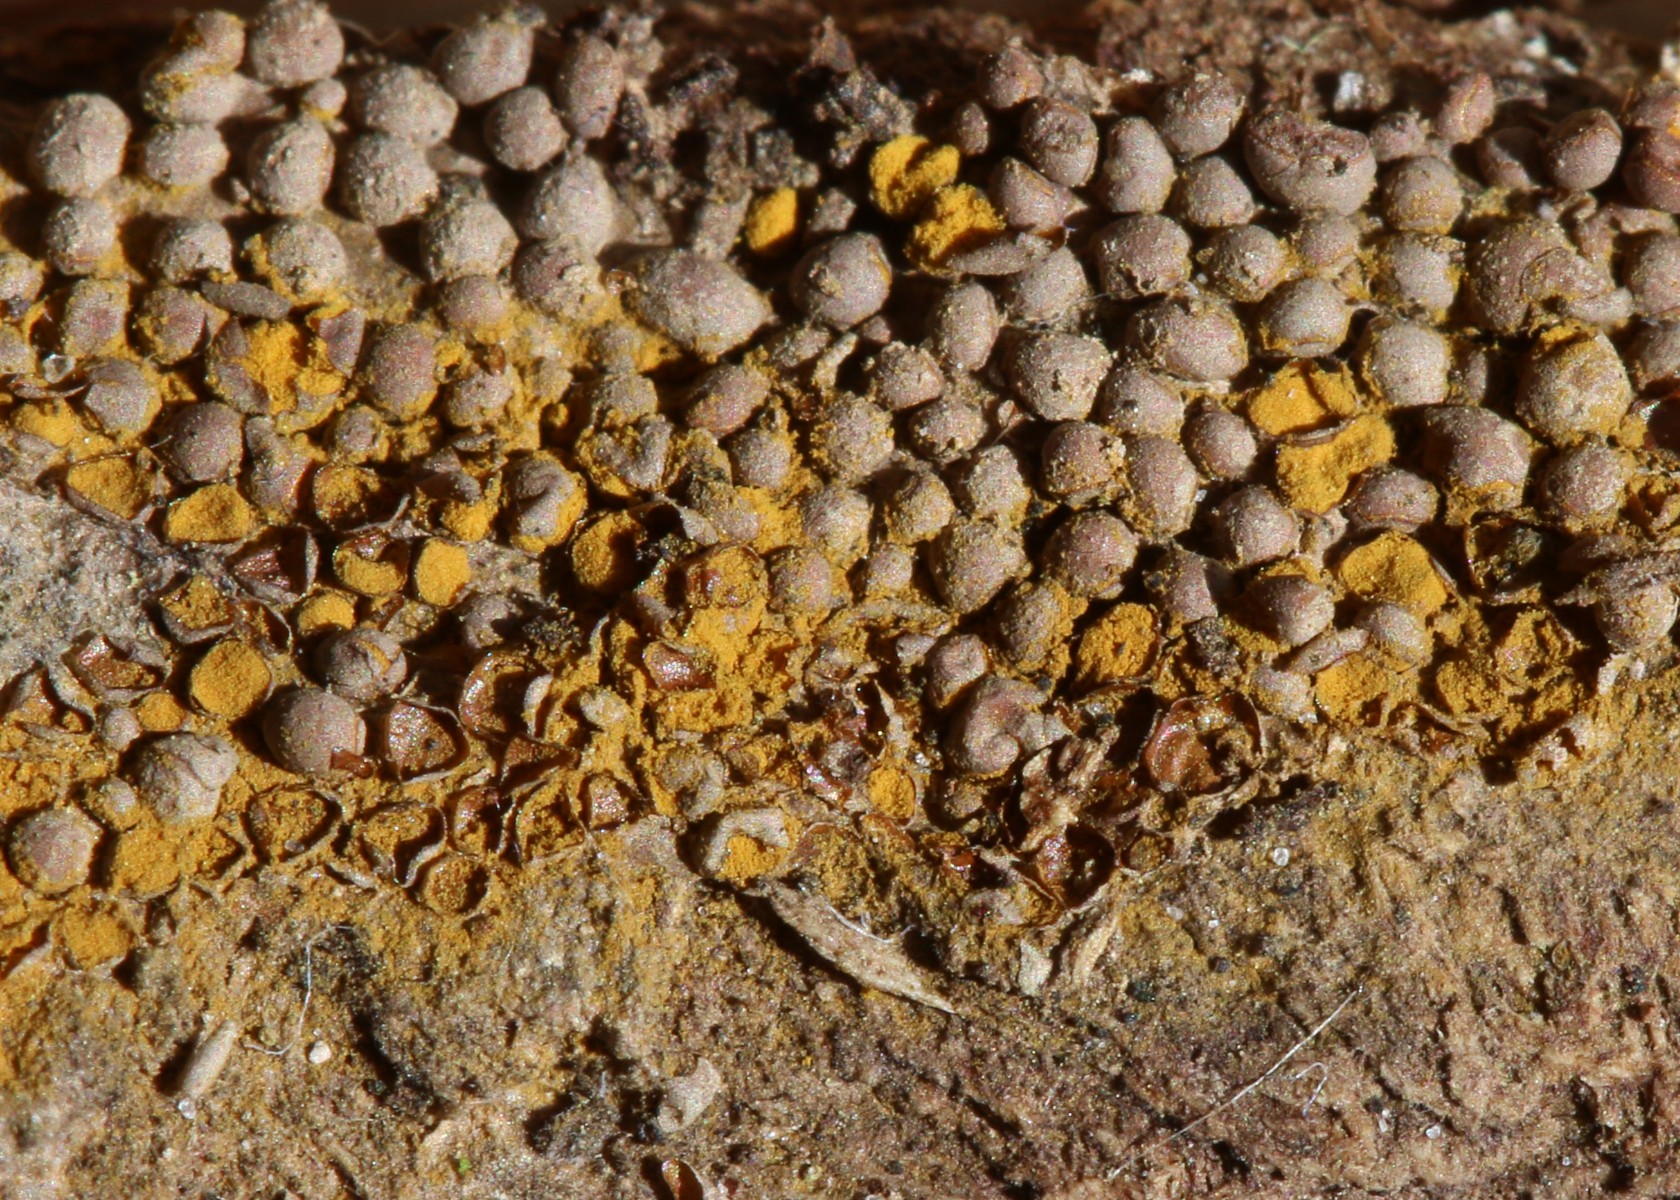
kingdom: Protozoa
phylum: Mycetozoa
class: Myxomycetes
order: Trichiales
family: Trichiaceae
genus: Perichaena
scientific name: Perichaena corticalis
